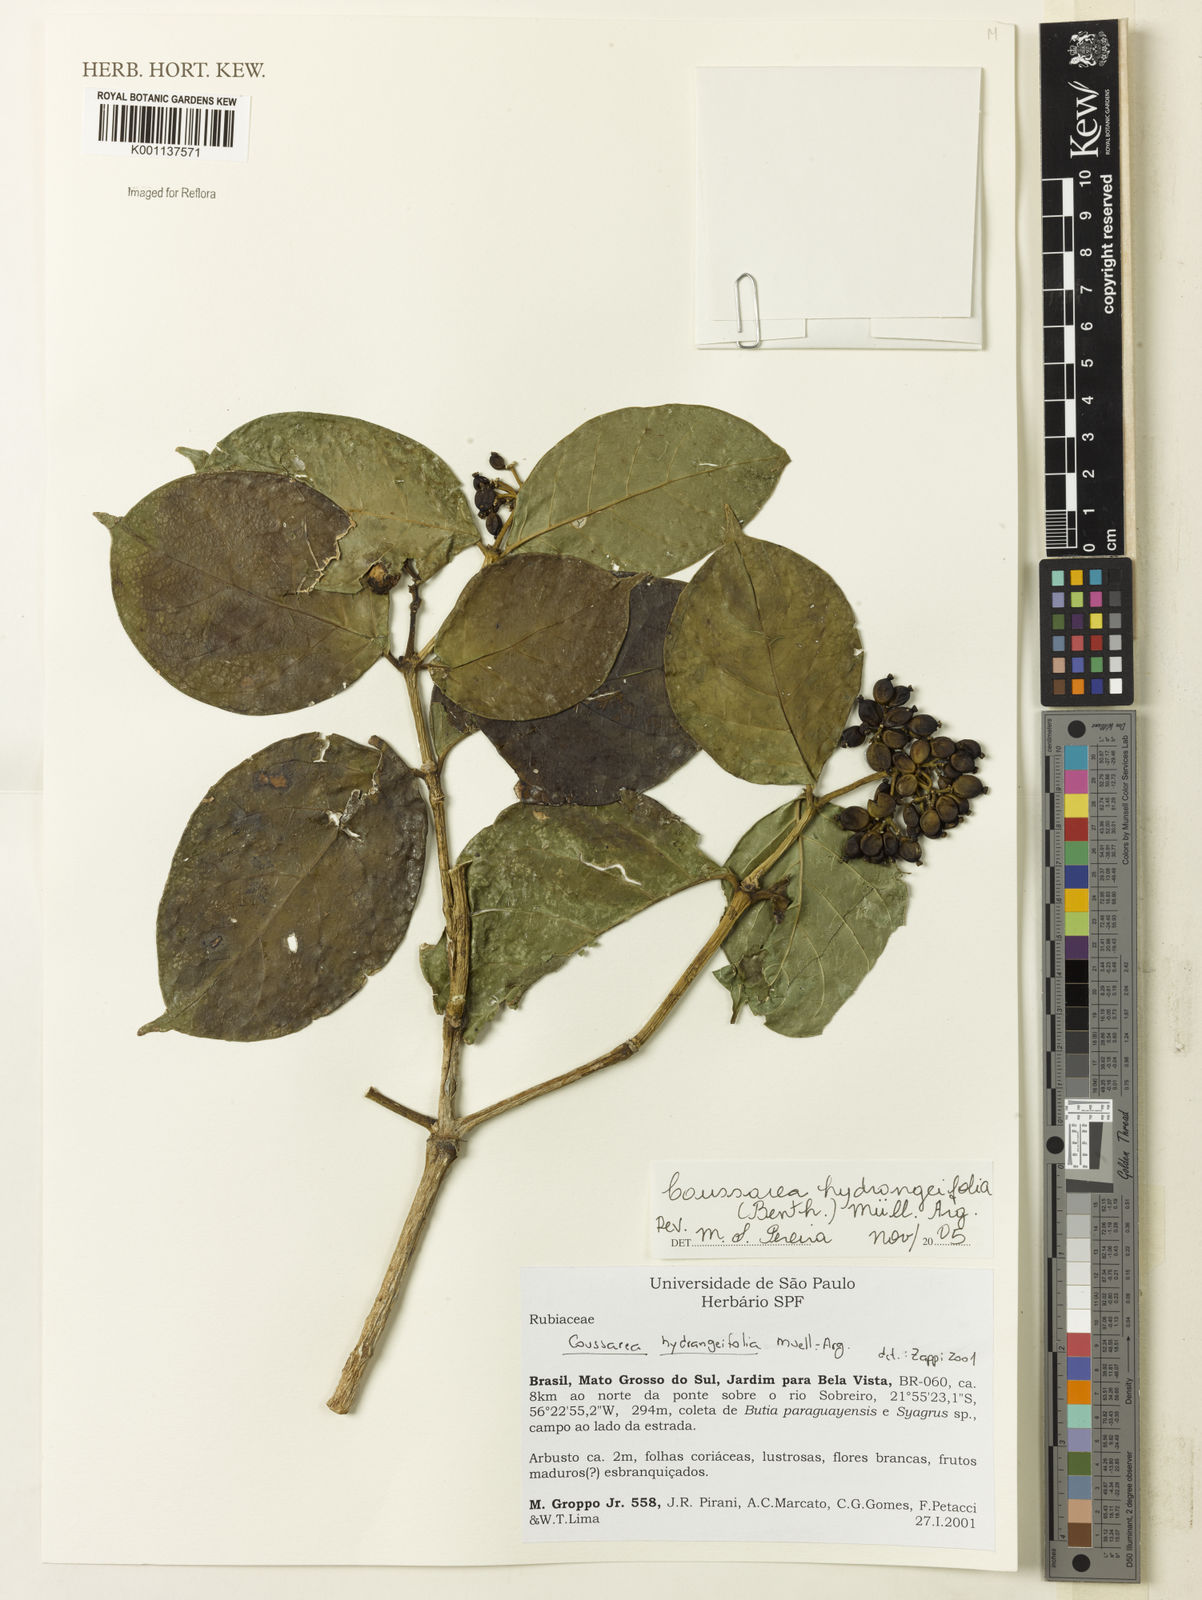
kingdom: Plantae
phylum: Tracheophyta
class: Magnoliopsida
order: Gentianales
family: Rubiaceae
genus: Coussarea
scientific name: Coussarea
